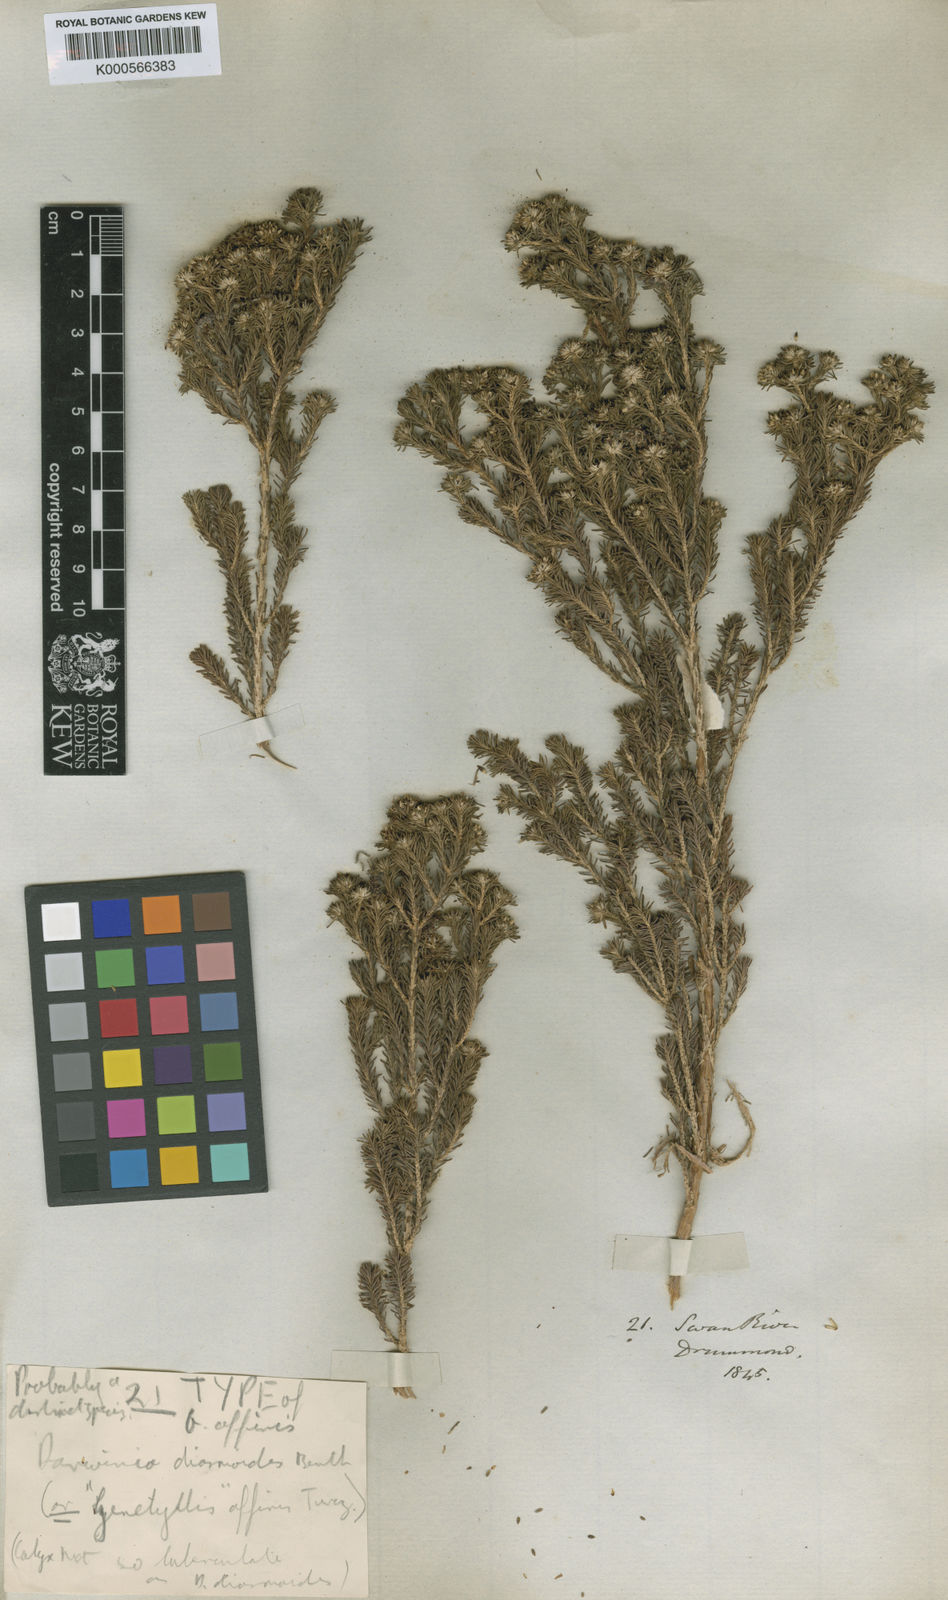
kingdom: Plantae
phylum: Tracheophyta
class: Magnoliopsida
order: Myrtales
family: Myrtaceae
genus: Darwinia
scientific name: Darwinia diosmoides
